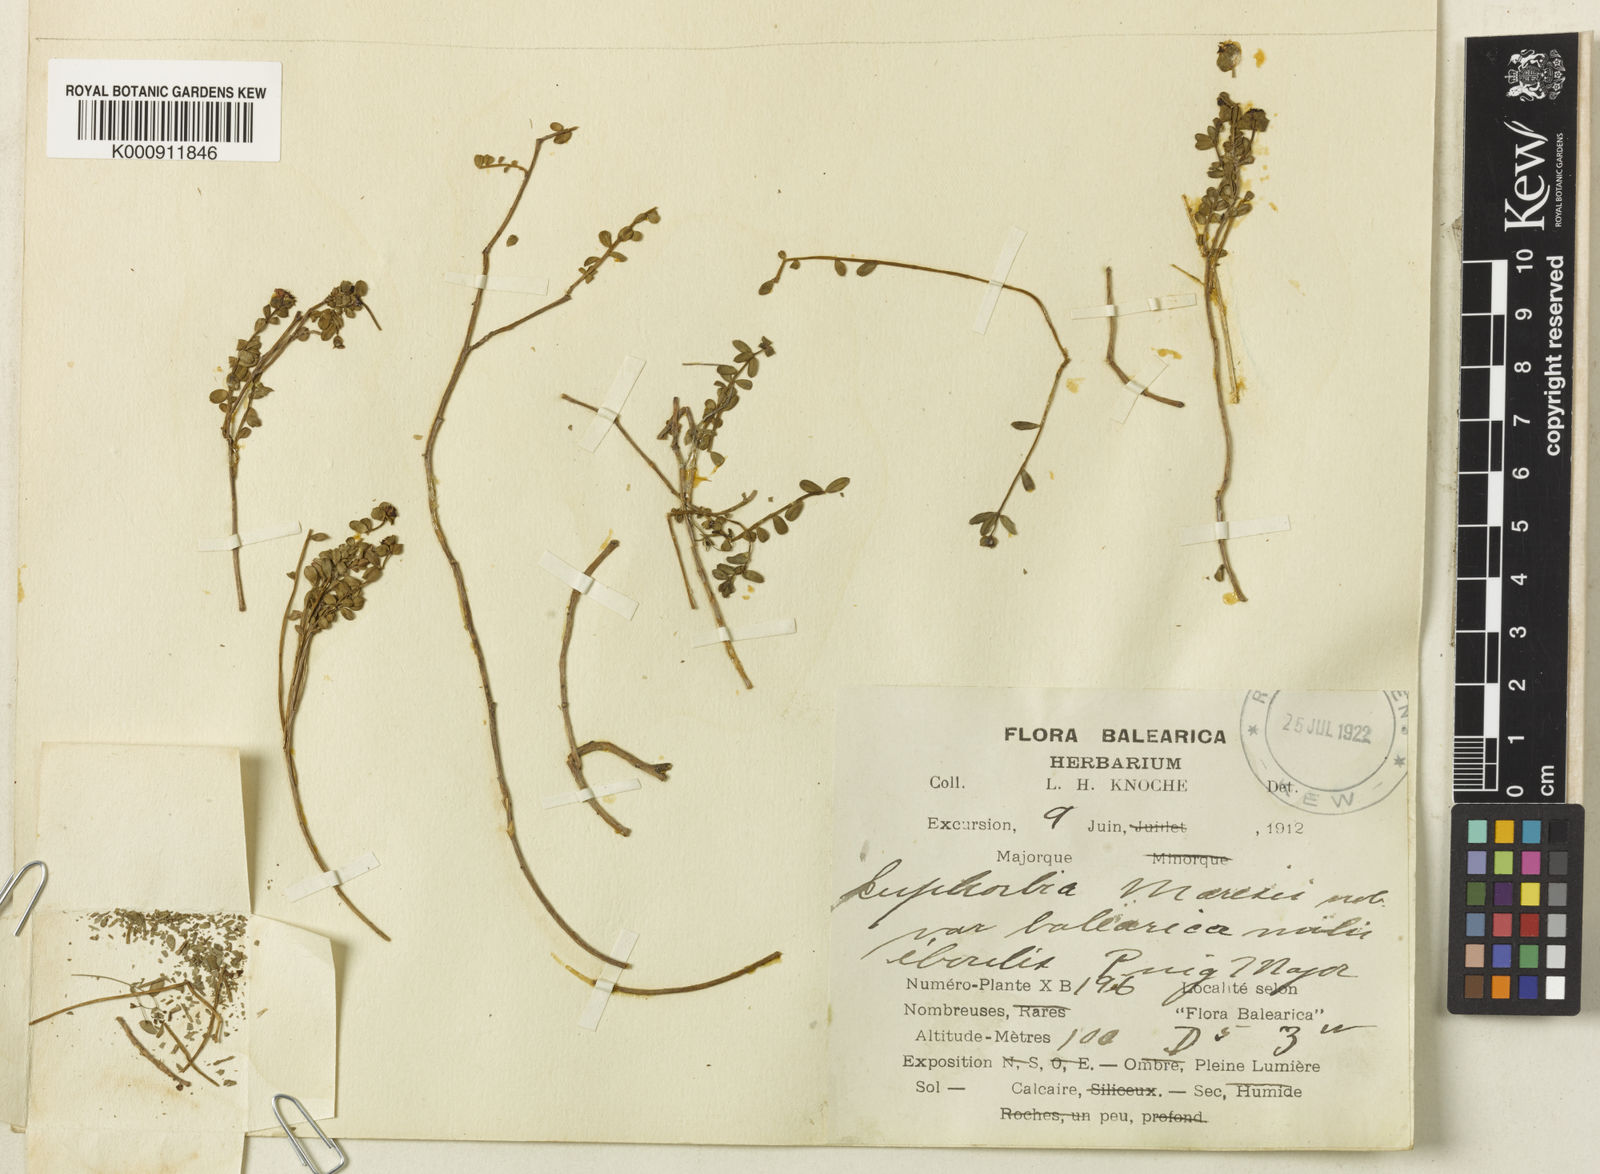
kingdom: Plantae
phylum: Tracheophyta
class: Magnoliopsida
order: Malpighiales
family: Euphorbiaceae
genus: Euphorbia
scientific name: Euphorbia maresii
